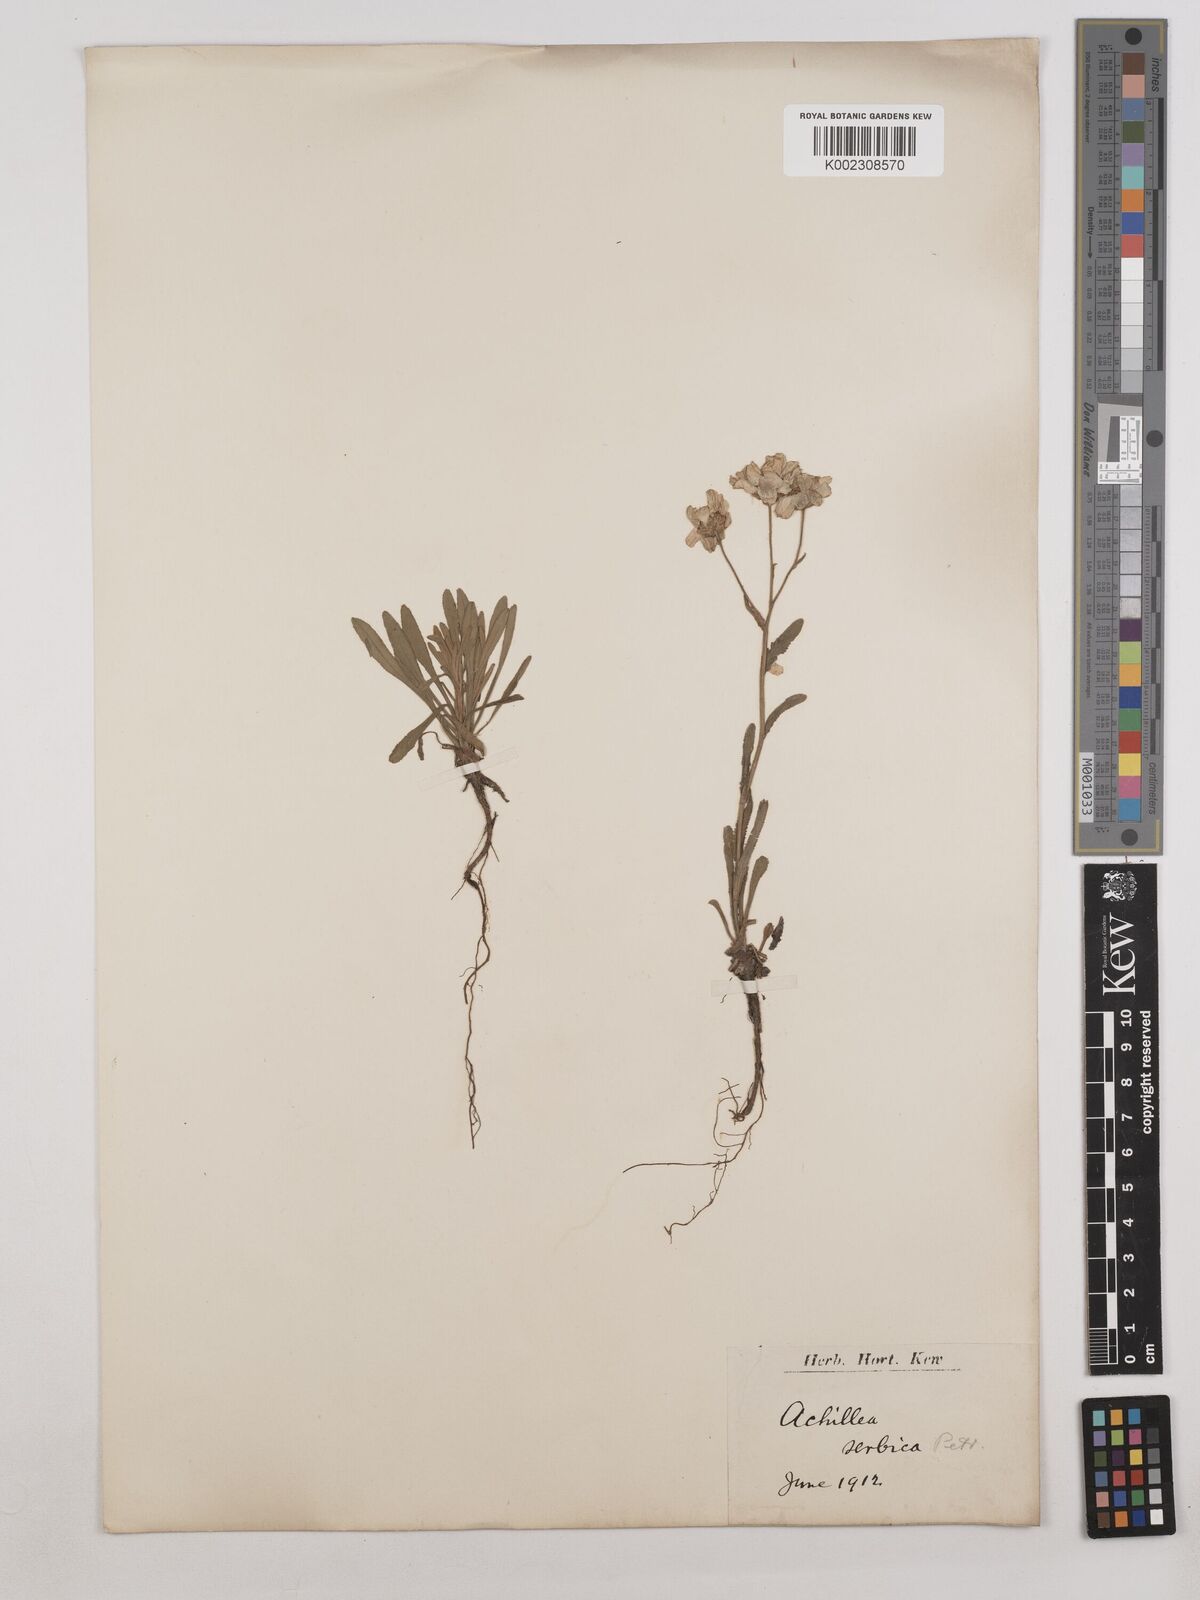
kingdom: Plantae
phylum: Tracheophyta
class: Magnoliopsida
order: Asterales
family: Asteraceae
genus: Achillea
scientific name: Achillea ageratifolia
